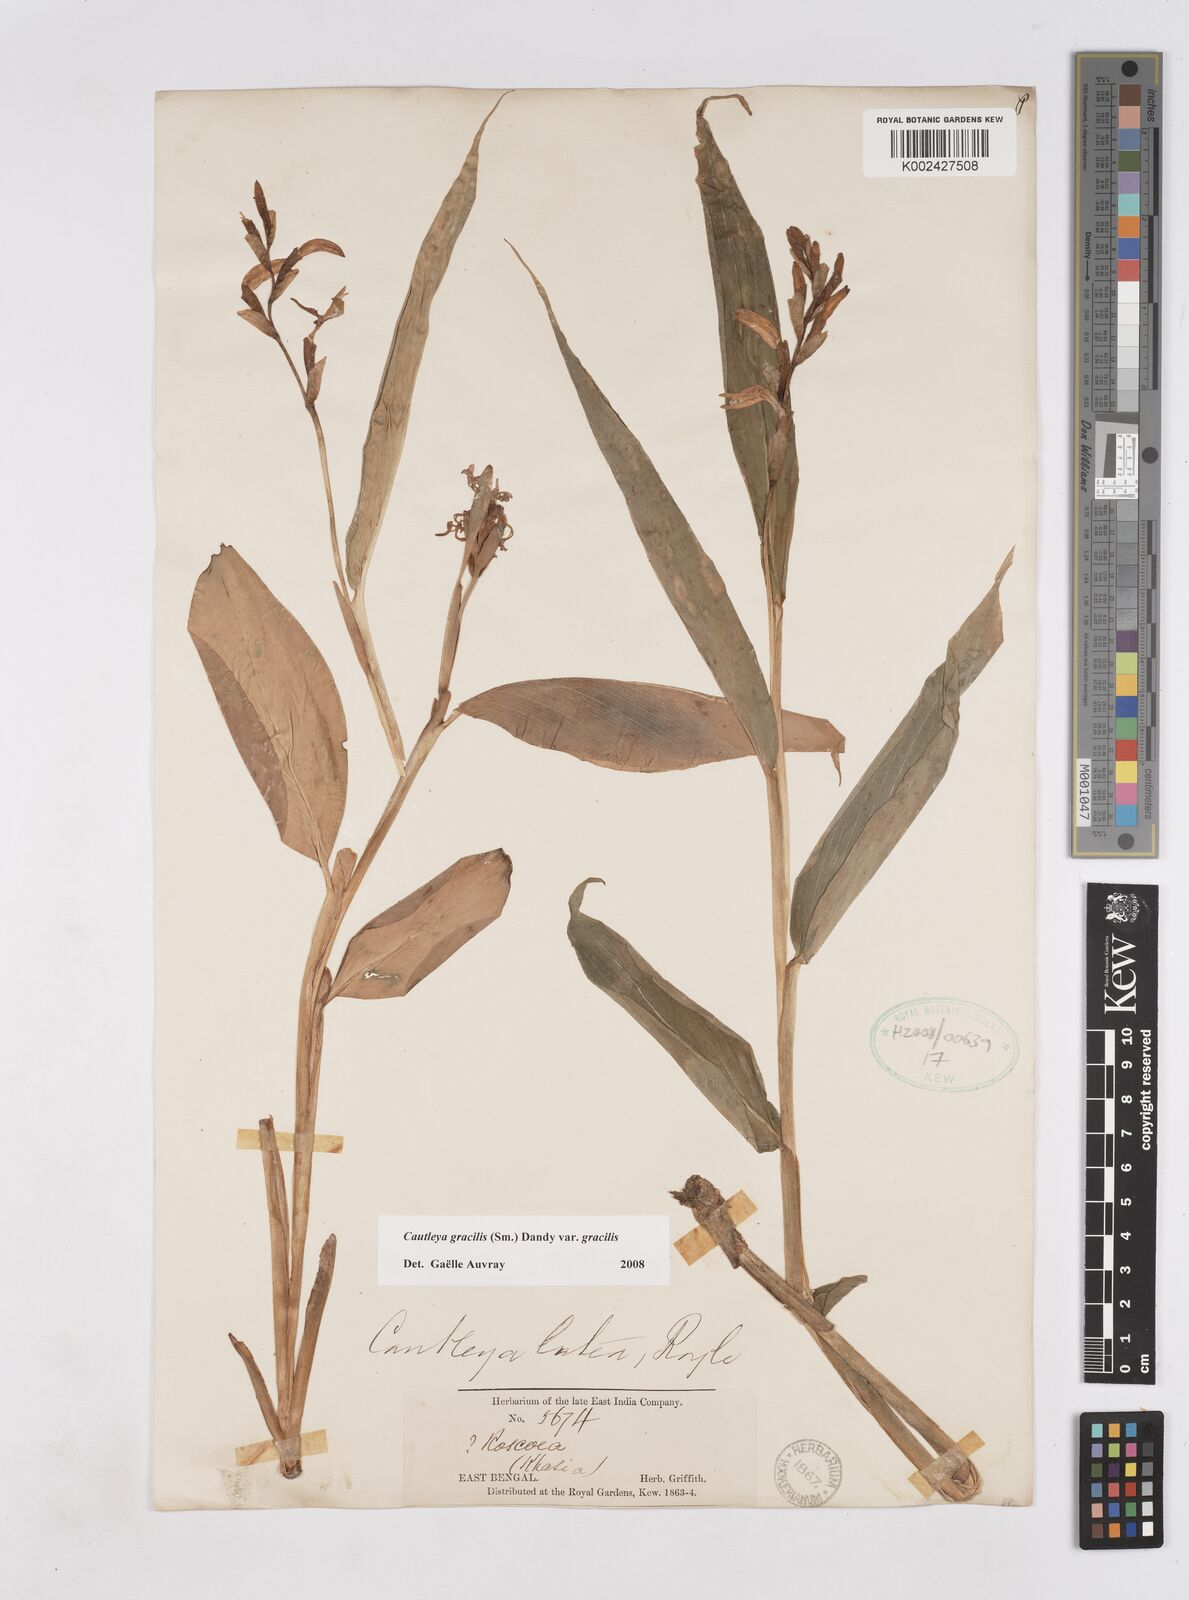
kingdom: Plantae
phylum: Tracheophyta
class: Liliopsida
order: Zingiberales
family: Zingiberaceae
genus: Cautleya
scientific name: Cautleya gracilis
